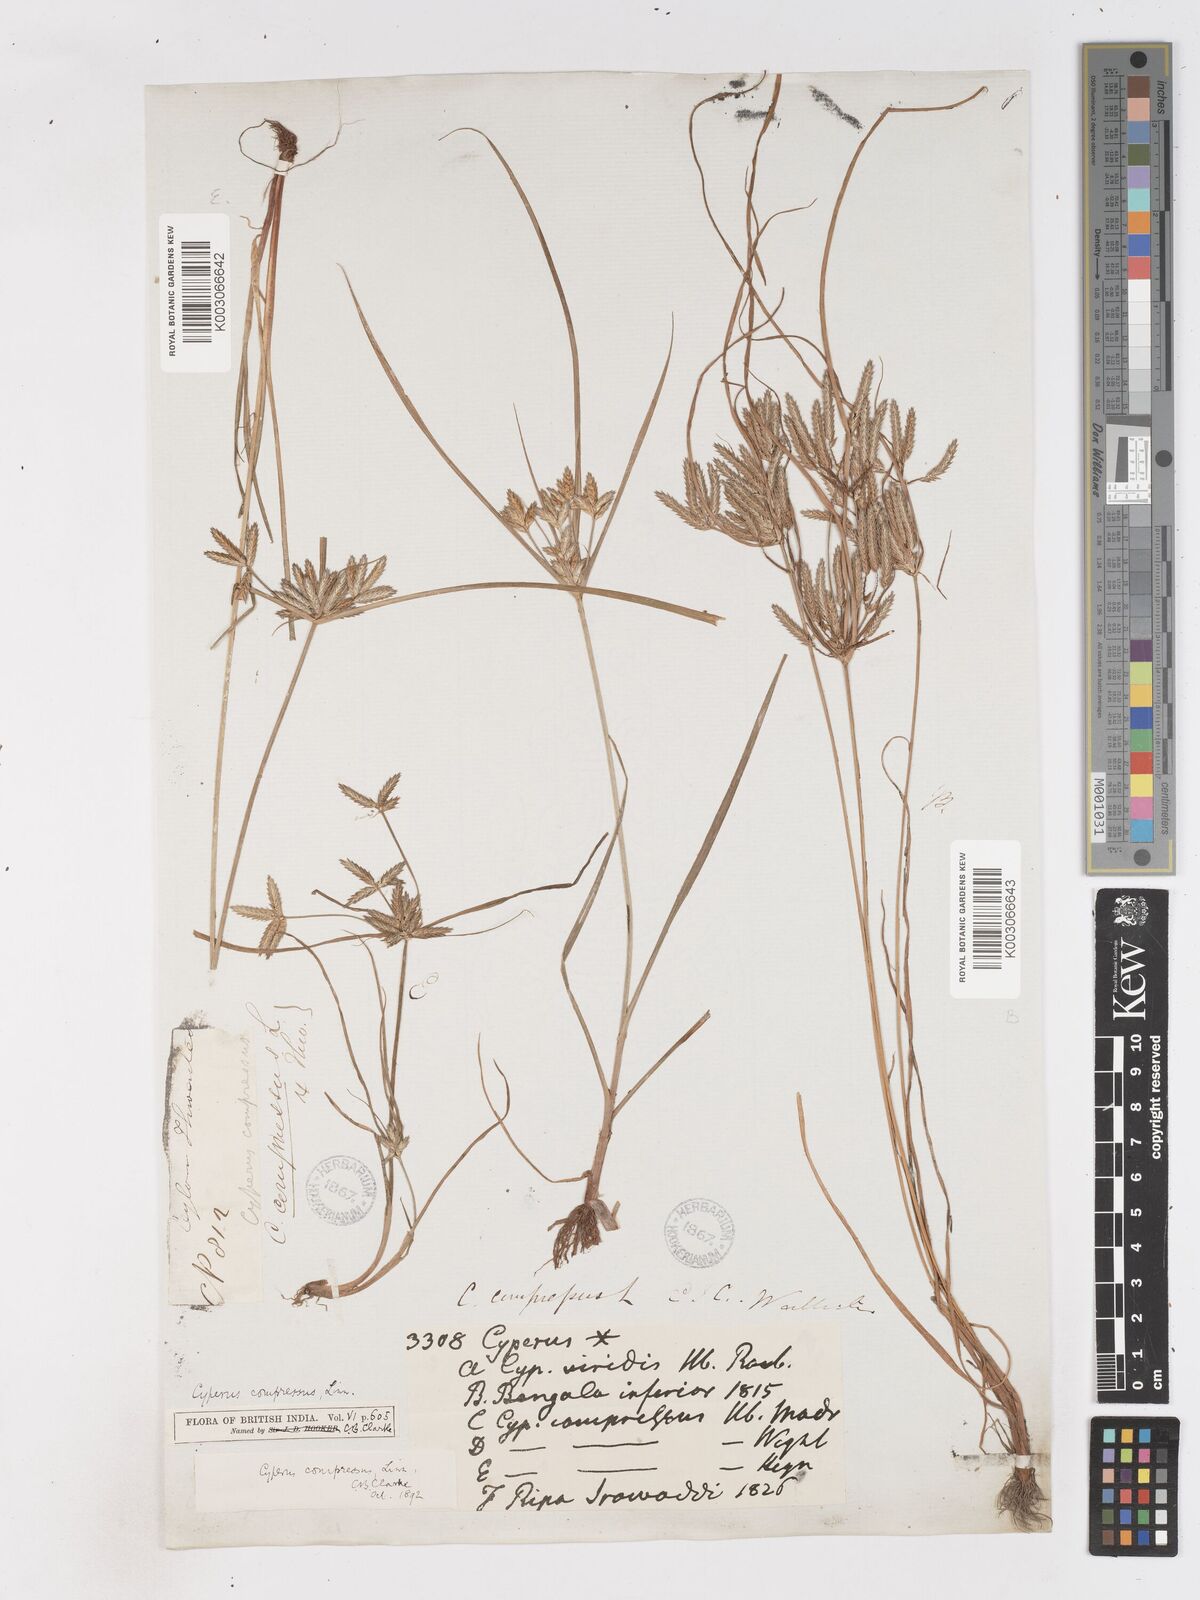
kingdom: Plantae
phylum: Tracheophyta
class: Liliopsida
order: Poales
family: Cyperaceae
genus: Cyperus
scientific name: Cyperus compressus
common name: Poorland flatsedge
